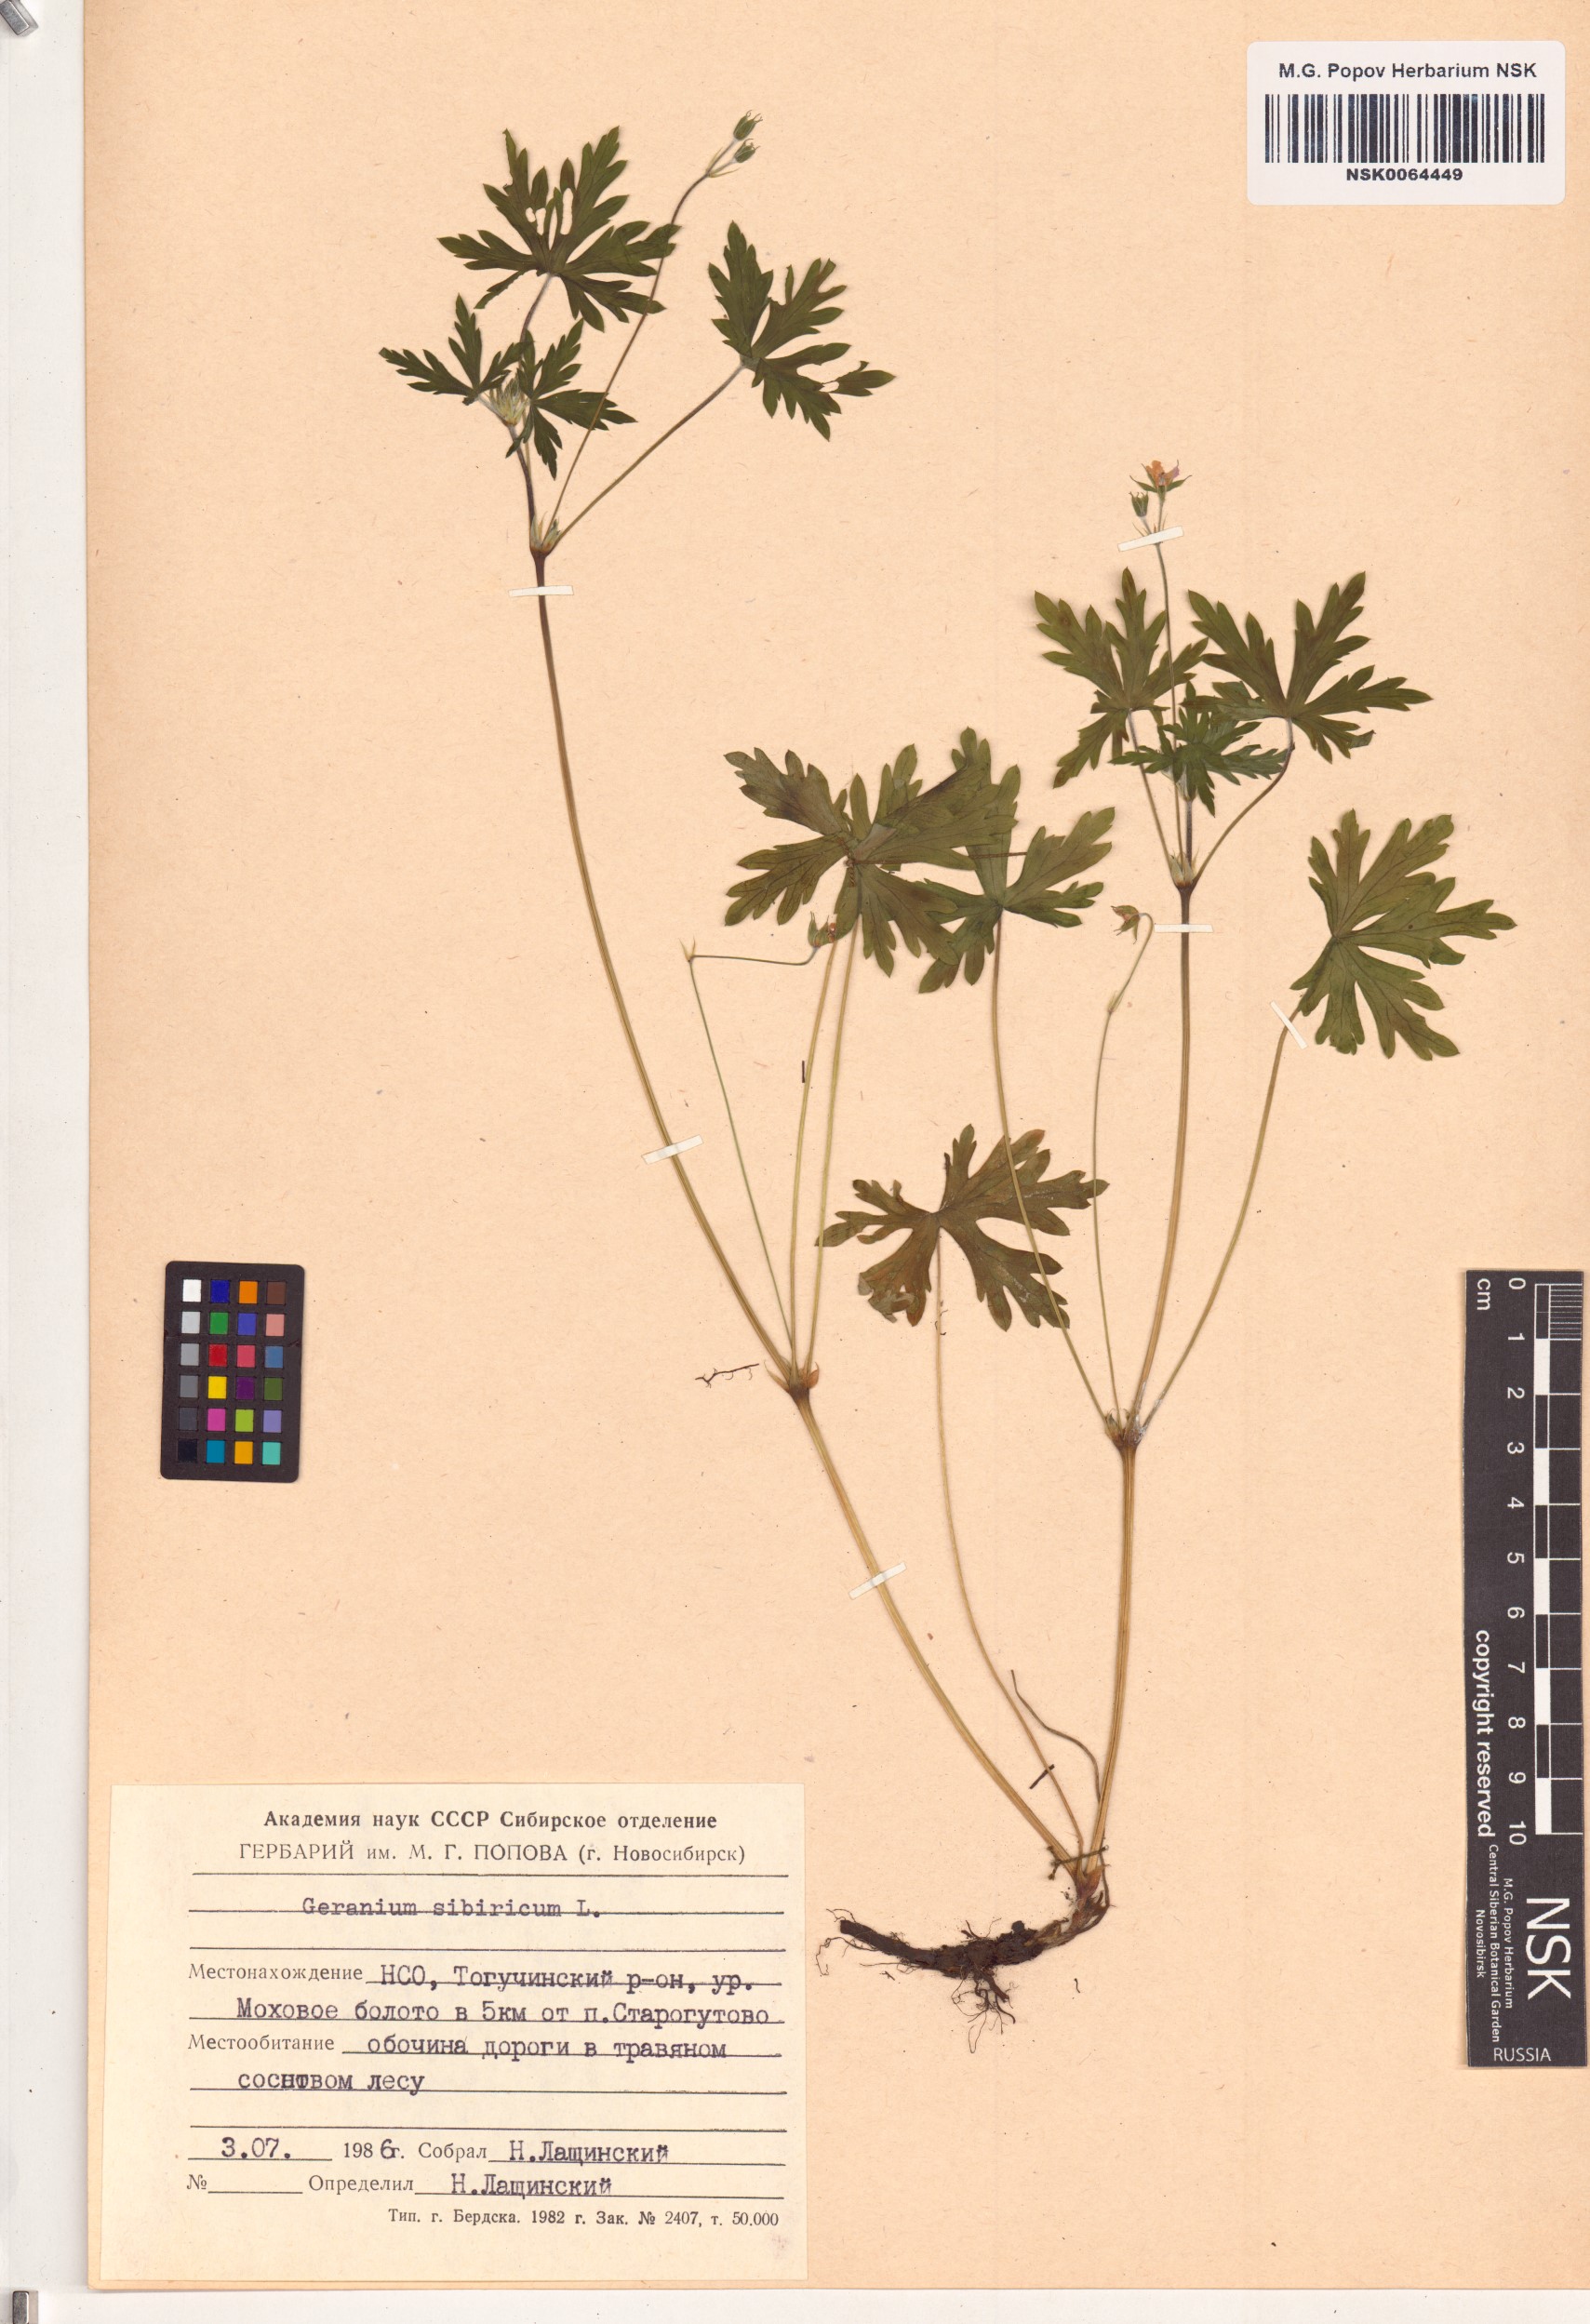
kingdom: Plantae
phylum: Tracheophyta
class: Magnoliopsida
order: Geraniales
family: Geraniaceae
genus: Geranium
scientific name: Geranium sibiricum
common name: Siberian crane's-bill
